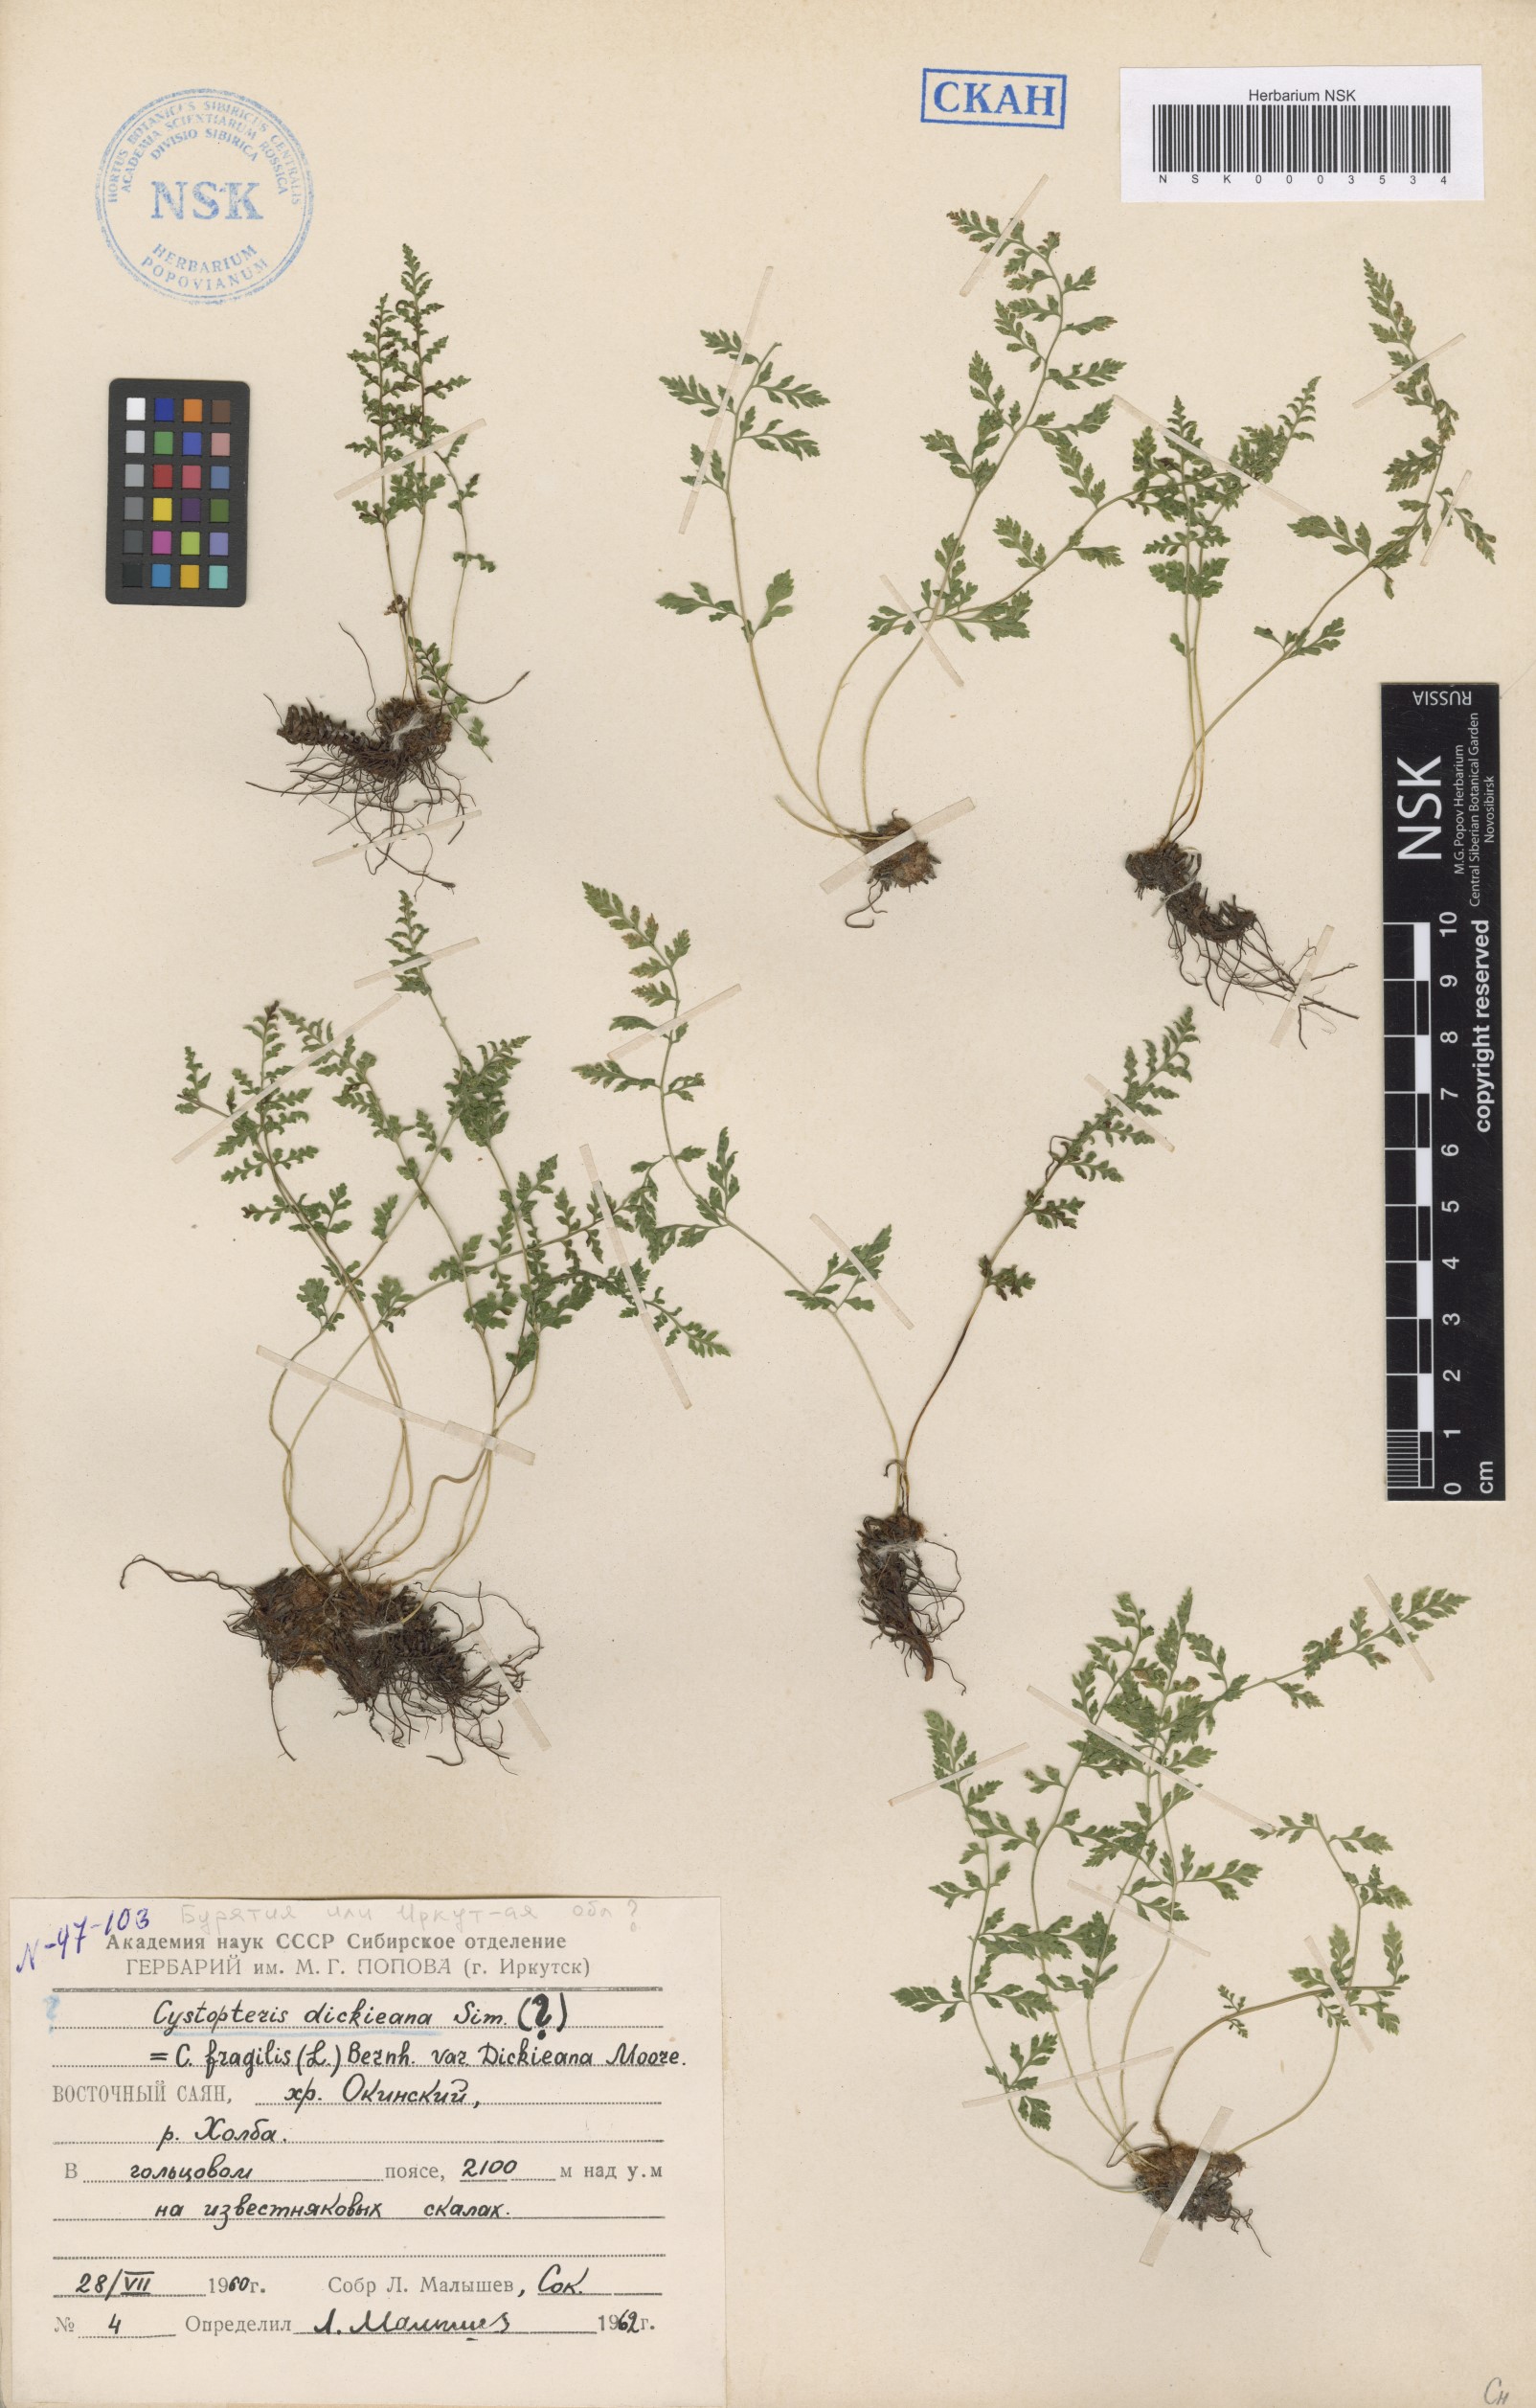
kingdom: Plantae
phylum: Tracheophyta
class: Polypodiopsida
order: Polypodiales
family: Cystopteridaceae
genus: Cystopteris
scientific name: Cystopteris dickieana
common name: Dickie's bladder-fern
